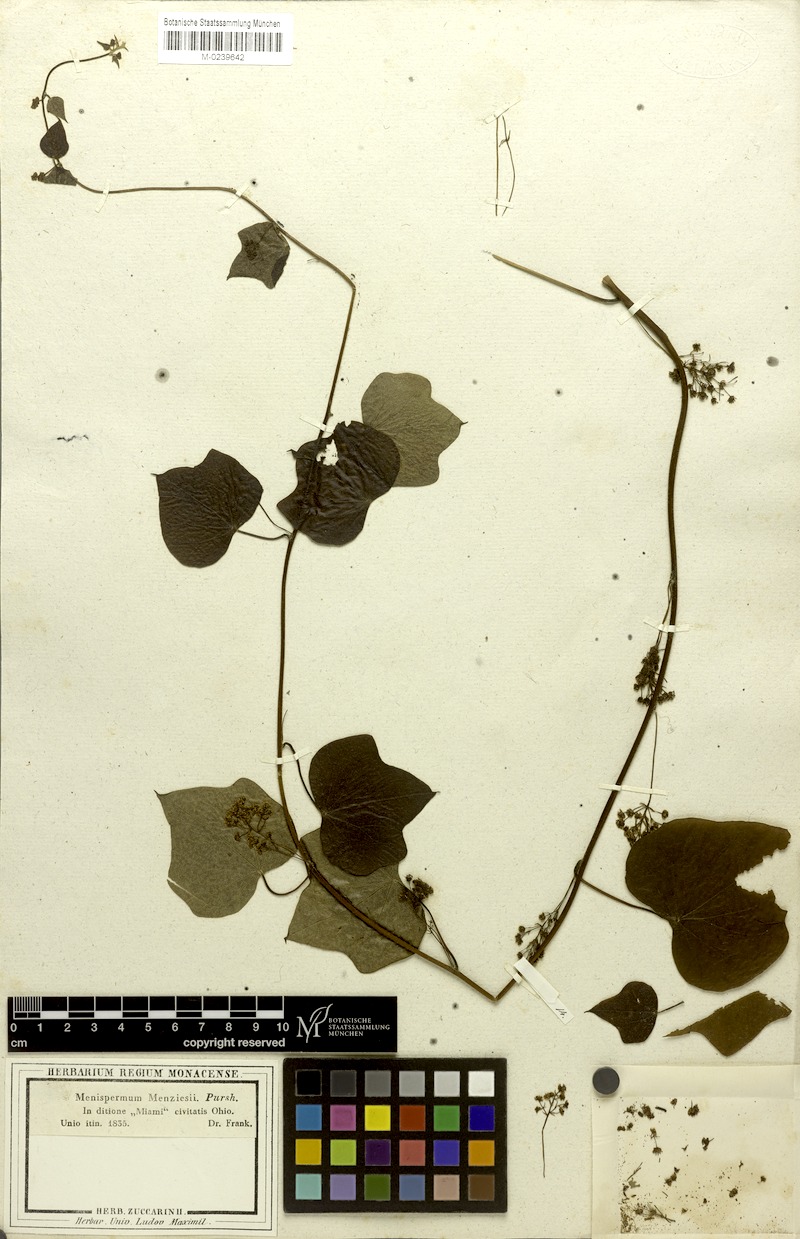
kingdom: Plantae
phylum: Tracheophyta
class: Magnoliopsida
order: Ranunculales
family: Menispermaceae
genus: Menispermum
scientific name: Menispermum canadense
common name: Moonseed
